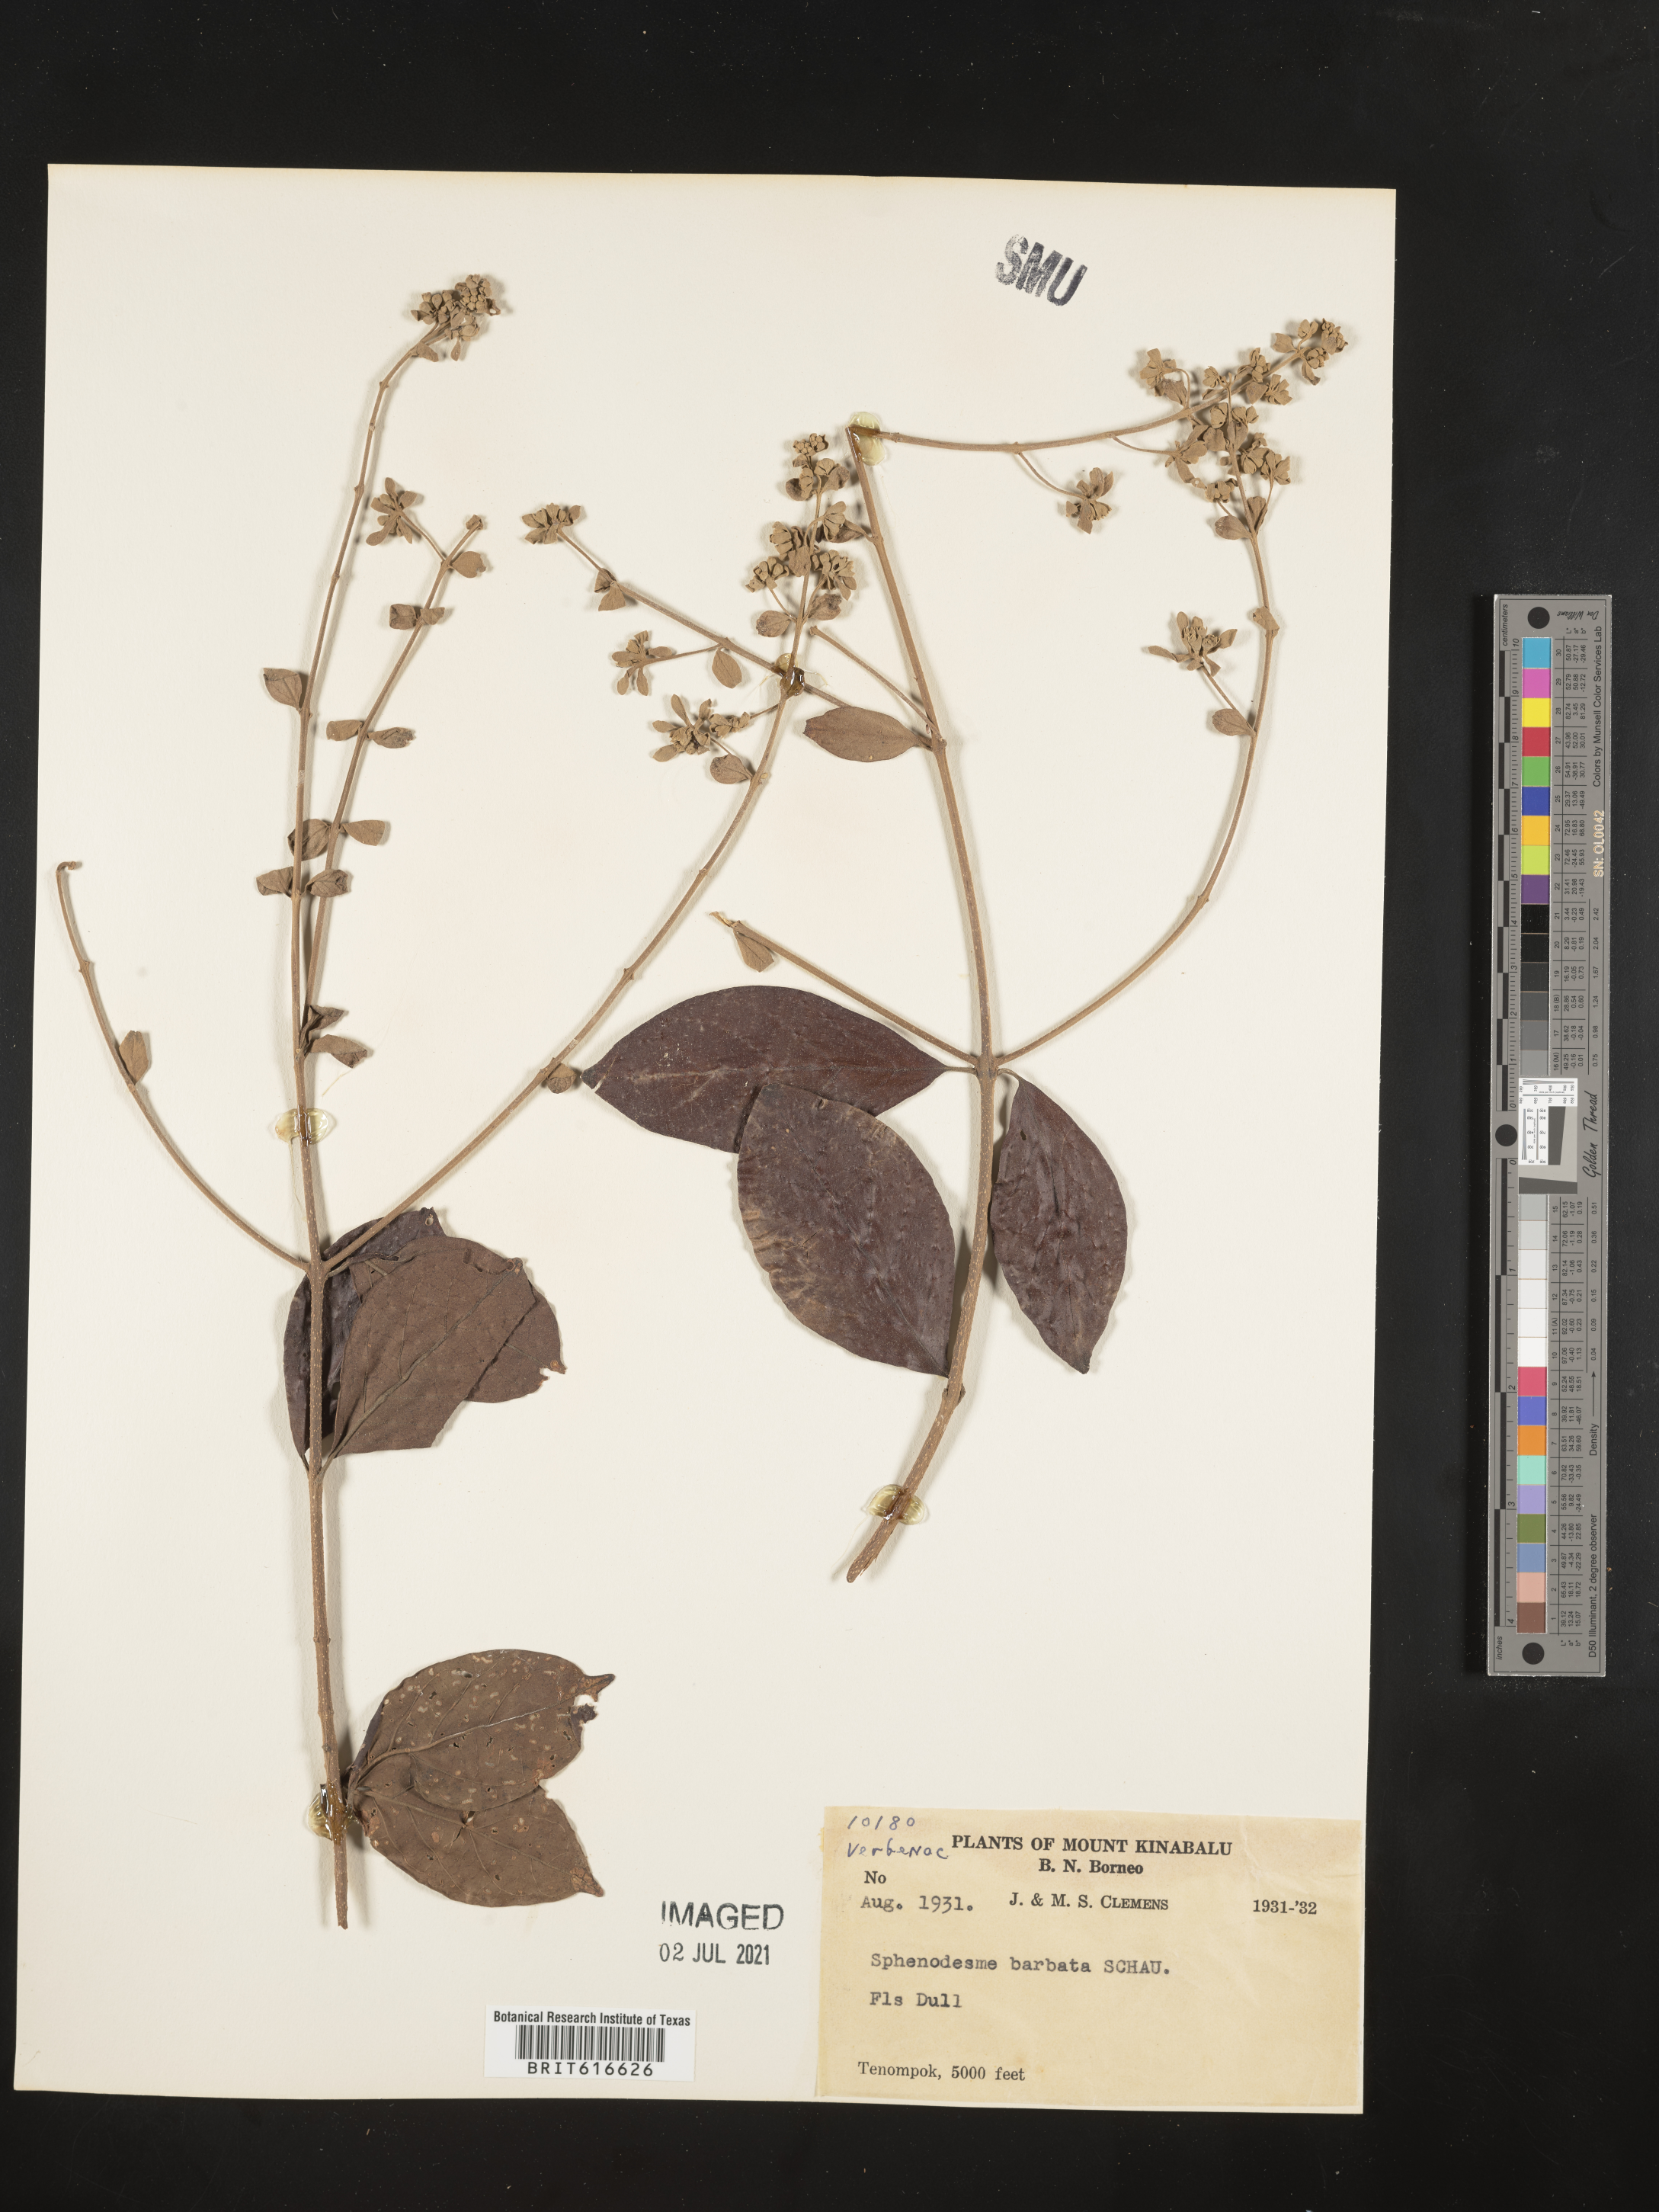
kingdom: Plantae
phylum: Tracheophyta
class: Magnoliopsida
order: Lamiales
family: Lamiaceae
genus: Sphenodesme
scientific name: Sphenodesme racemosa
